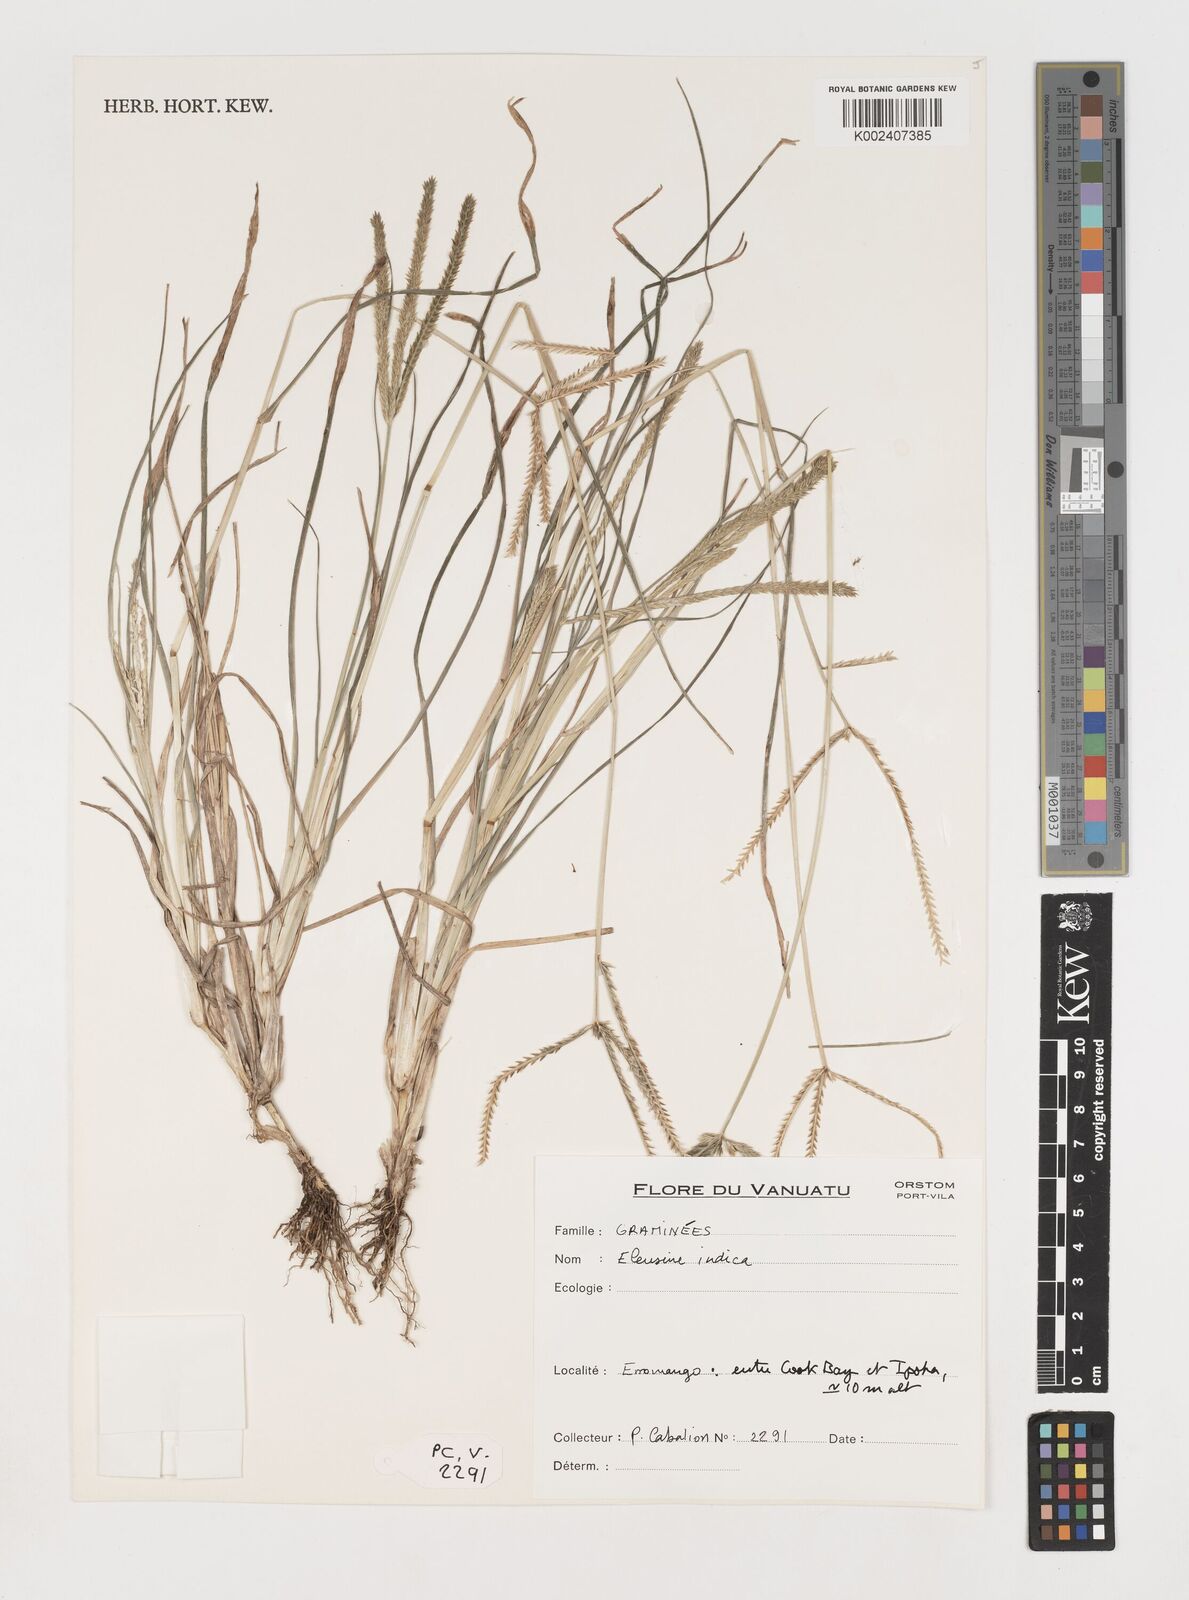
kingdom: Plantae
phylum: Tracheophyta
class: Liliopsida
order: Poales
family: Poaceae
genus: Eleusine
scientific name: Eleusine indica
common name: Yard-grass
